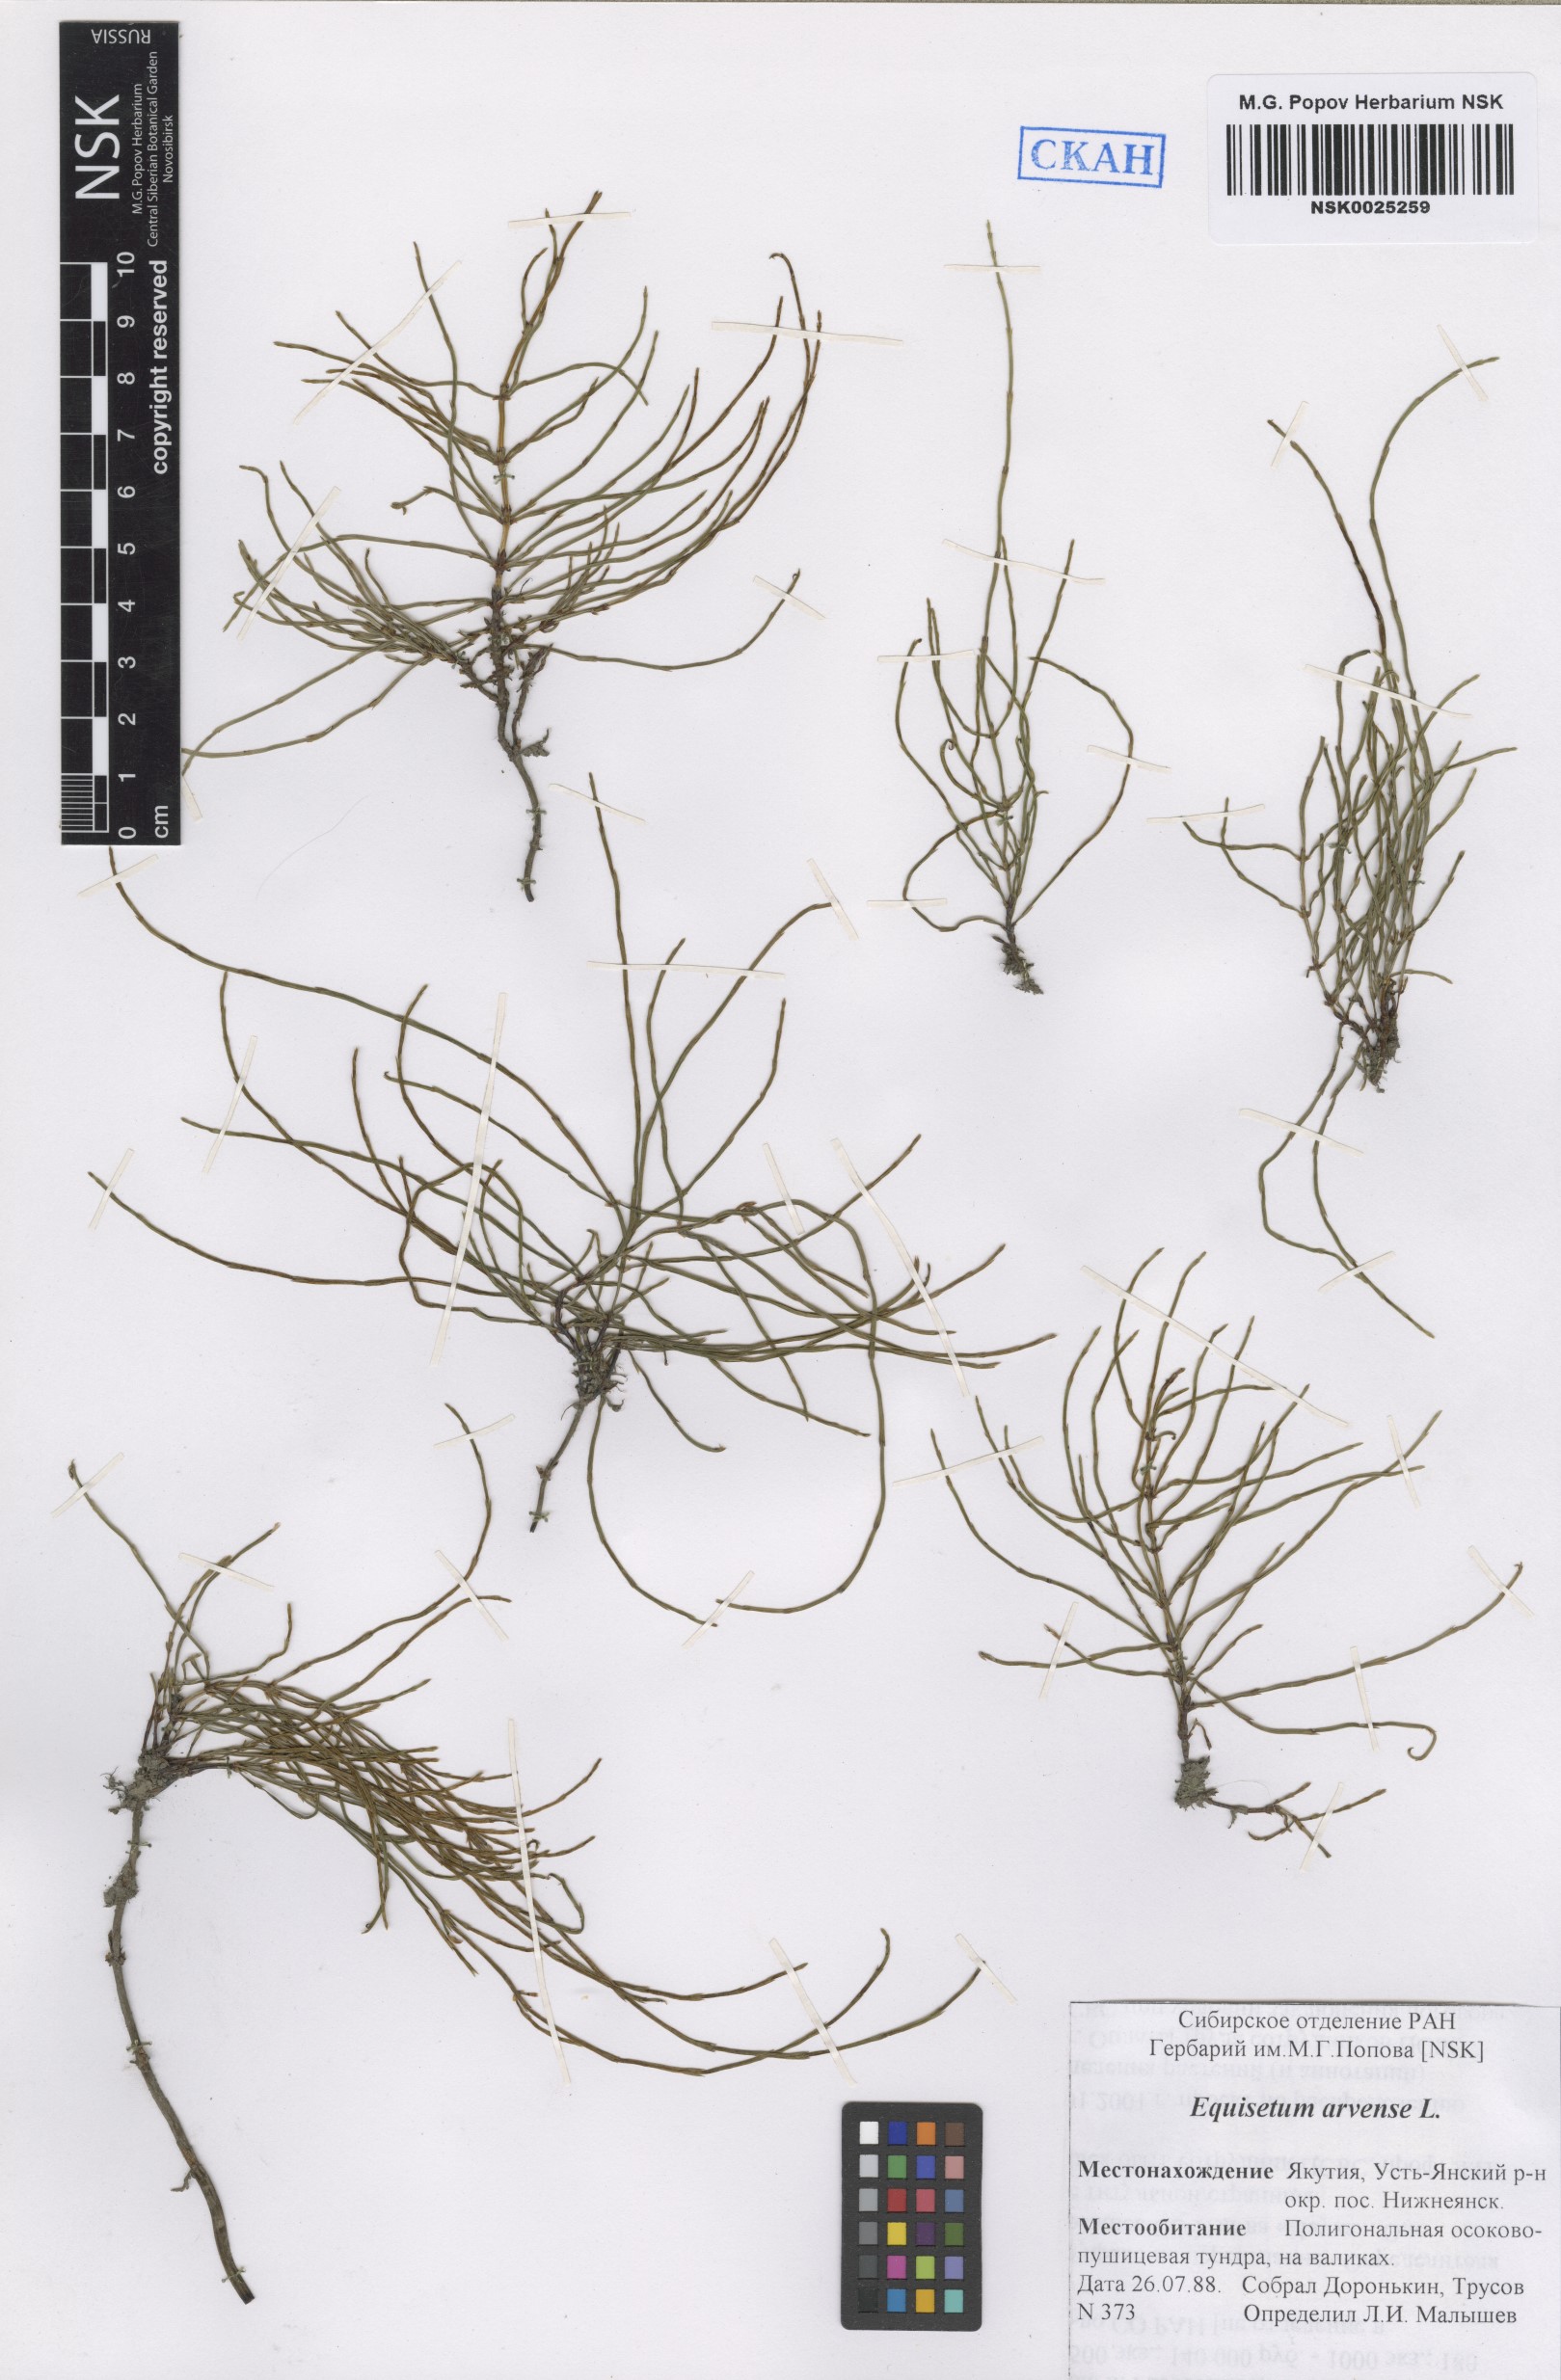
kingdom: Plantae
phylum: Tracheophyta
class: Polypodiopsida
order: Equisetales
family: Equisetaceae
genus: Equisetum
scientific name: Equisetum arvense
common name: Field horsetail
